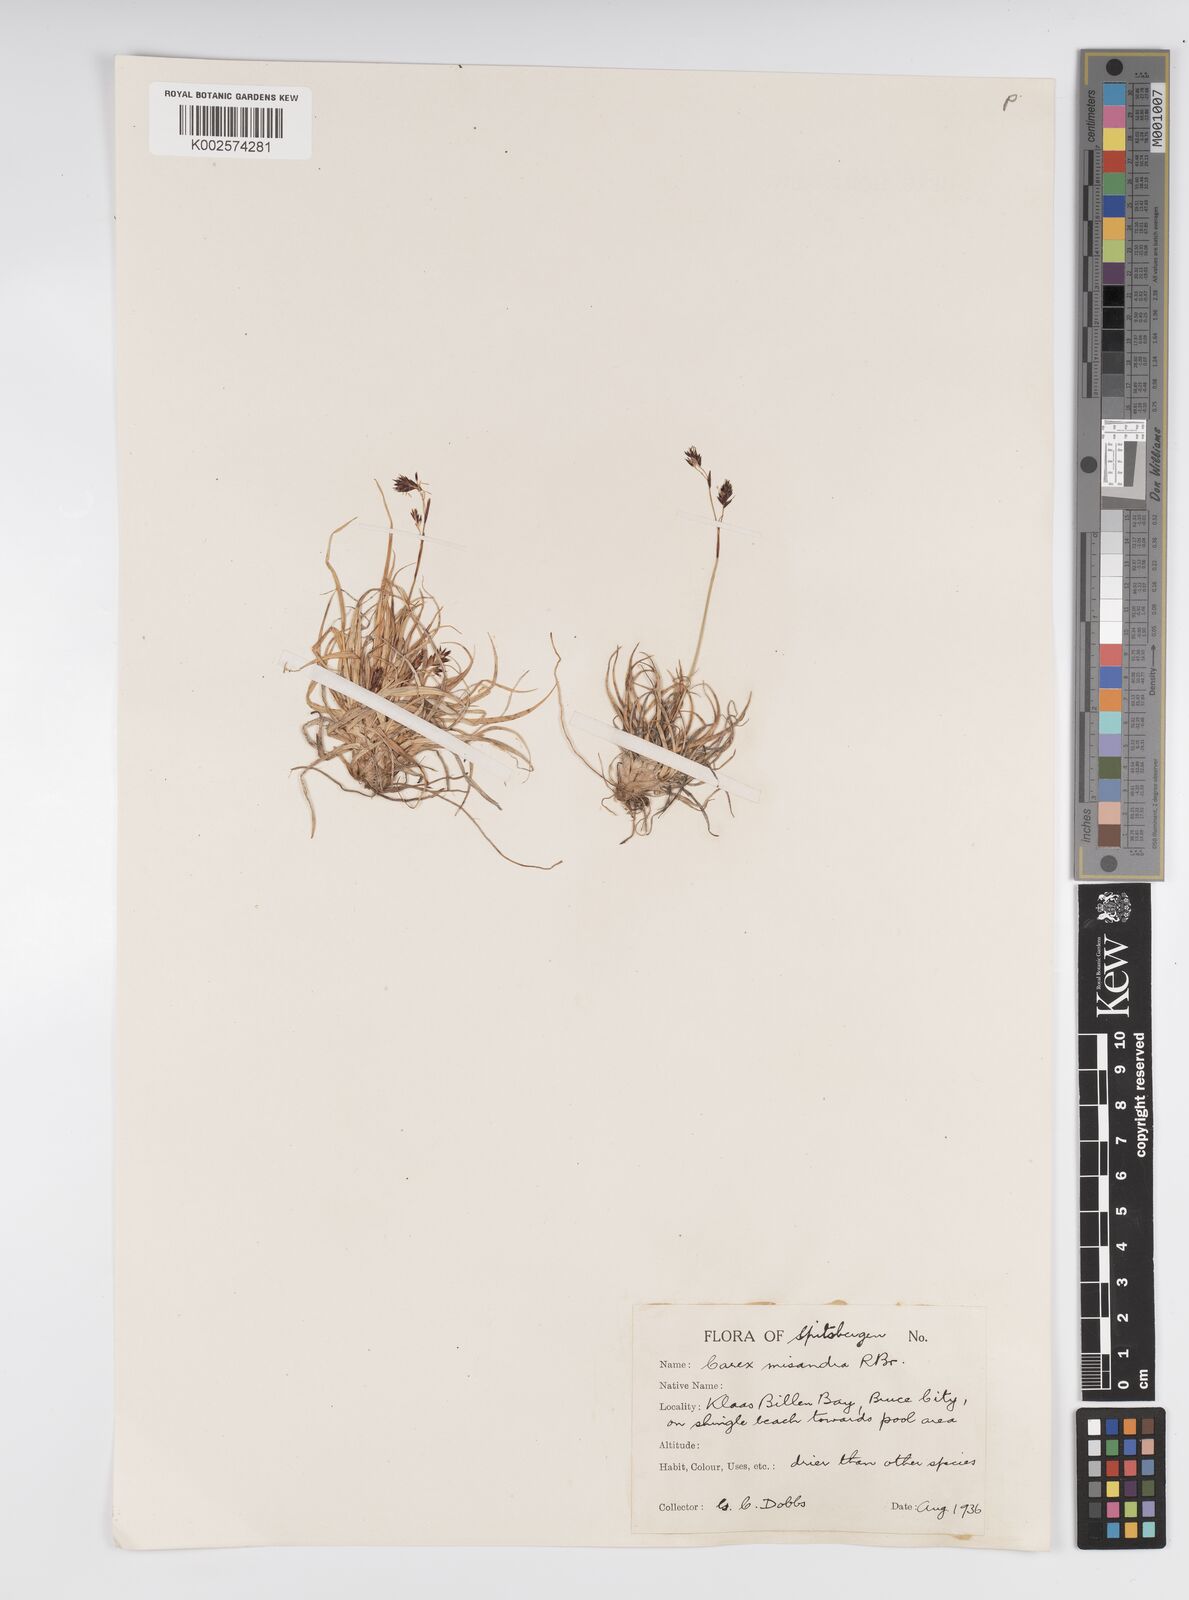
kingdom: Plantae
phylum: Tracheophyta
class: Liliopsida
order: Poales
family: Cyperaceae
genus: Carex
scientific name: Carex fuliginosa
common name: Few-flowered sedge
